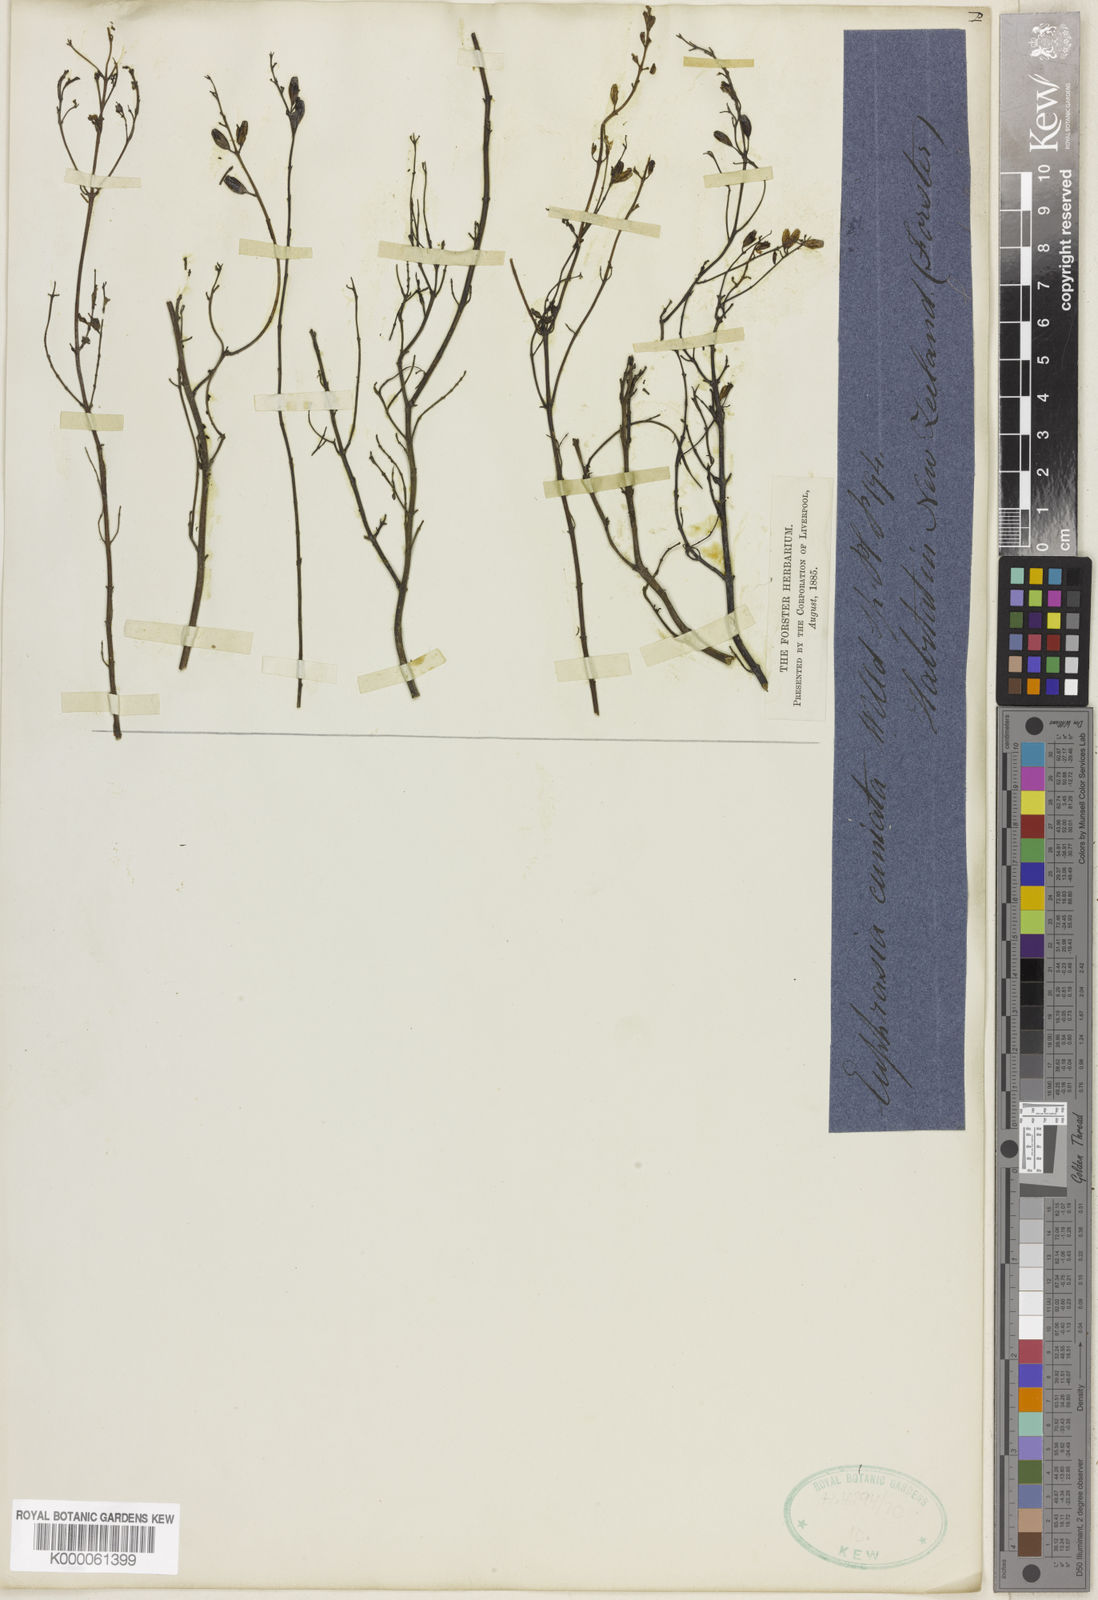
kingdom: Plantae
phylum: Tracheophyta
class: Magnoliopsida
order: Lamiales
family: Orobanchaceae
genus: Euphrasia
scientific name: Euphrasia
